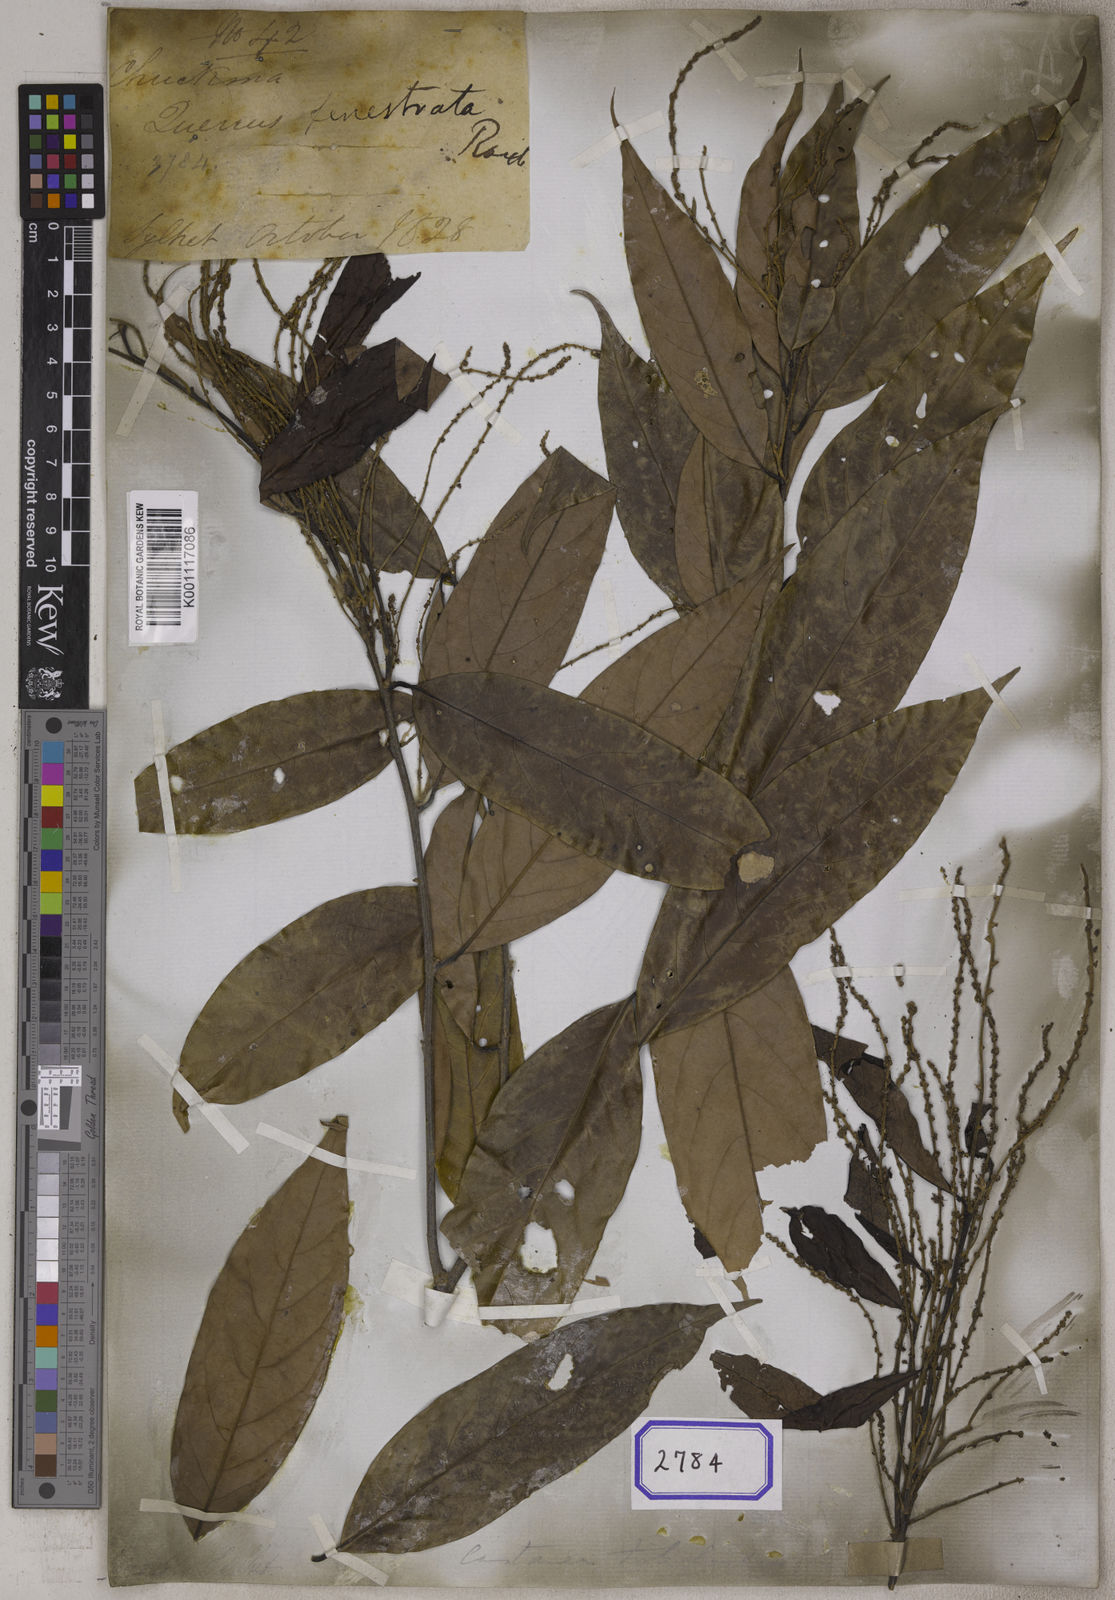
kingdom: Plantae
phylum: Tracheophyta
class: Magnoliopsida
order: Fagales
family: Fagaceae
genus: Quercus
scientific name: Quercus
